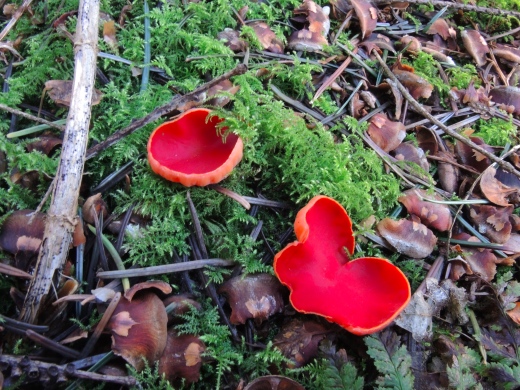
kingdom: Fungi
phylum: Ascomycota
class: Pezizomycetes
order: Pezizales
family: Sarcoscyphaceae
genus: Sarcoscypha
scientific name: Sarcoscypha austriaca
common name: krølhåret pragtbæger
